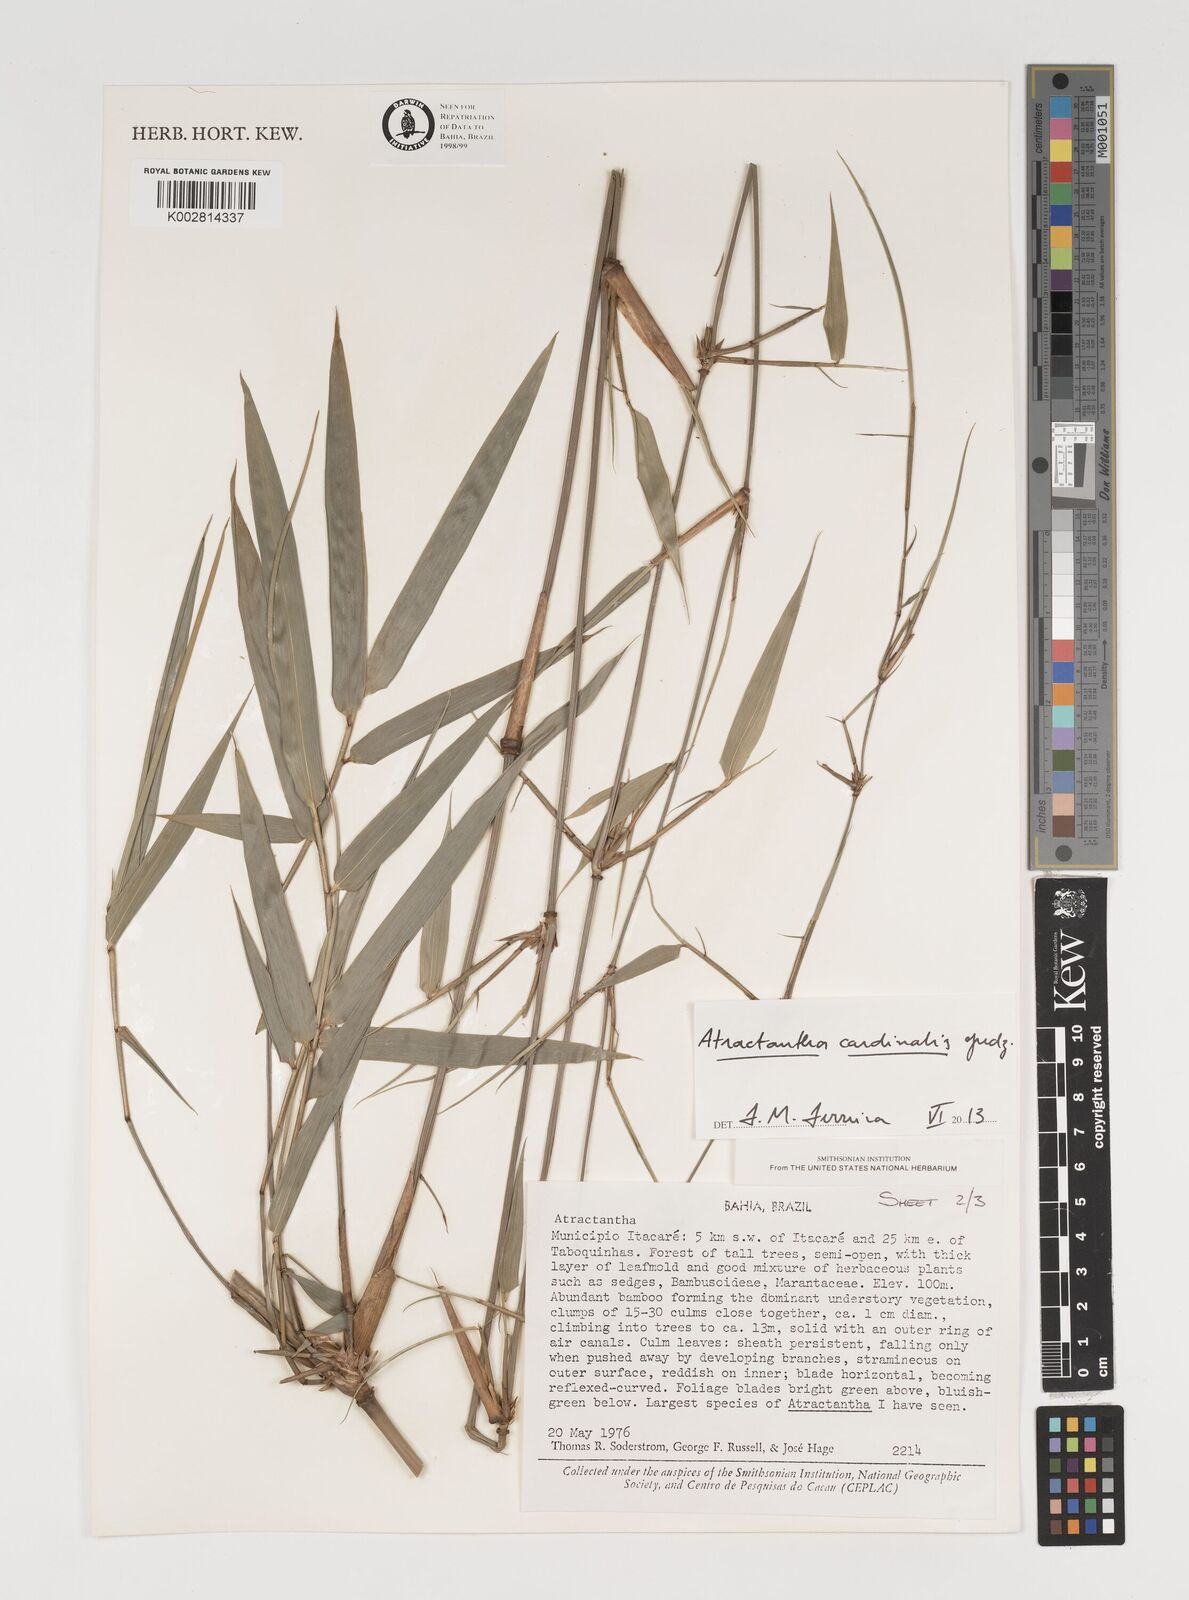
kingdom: Plantae
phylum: Tracheophyta
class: Liliopsida
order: Poales
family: Poaceae
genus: Atractantha
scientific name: Atractantha aureolanata
